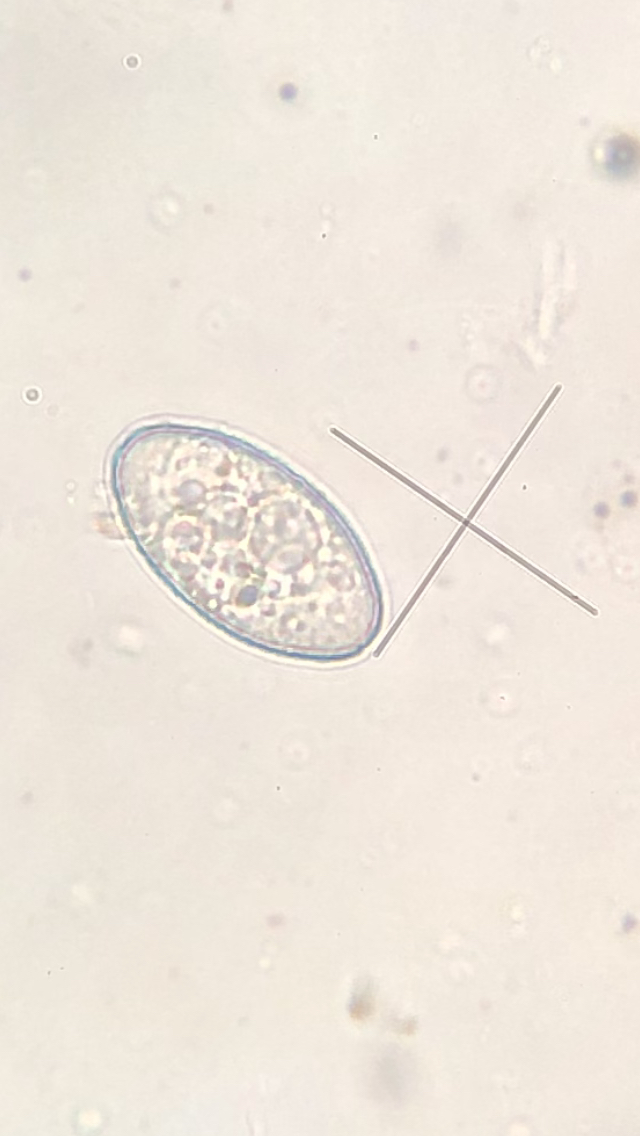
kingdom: Fungi
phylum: Ascomycota
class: Leotiomycetes
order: Helotiales
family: Erysiphaceae
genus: Podosphaera
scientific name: Podosphaera aphanis
